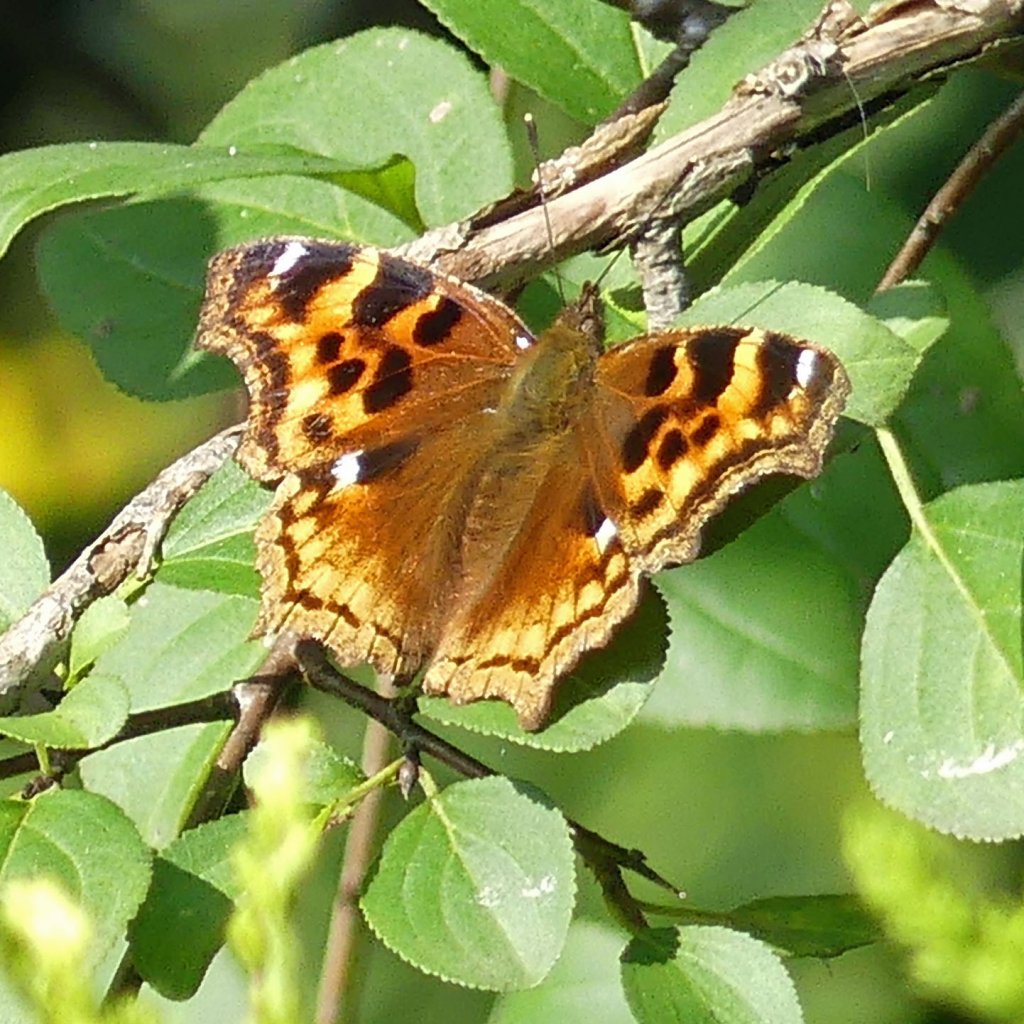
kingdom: Animalia
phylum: Arthropoda
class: Insecta
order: Lepidoptera
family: Nymphalidae
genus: Polygonia
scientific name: Polygonia vaualbum
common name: Compton Tortoiseshell
